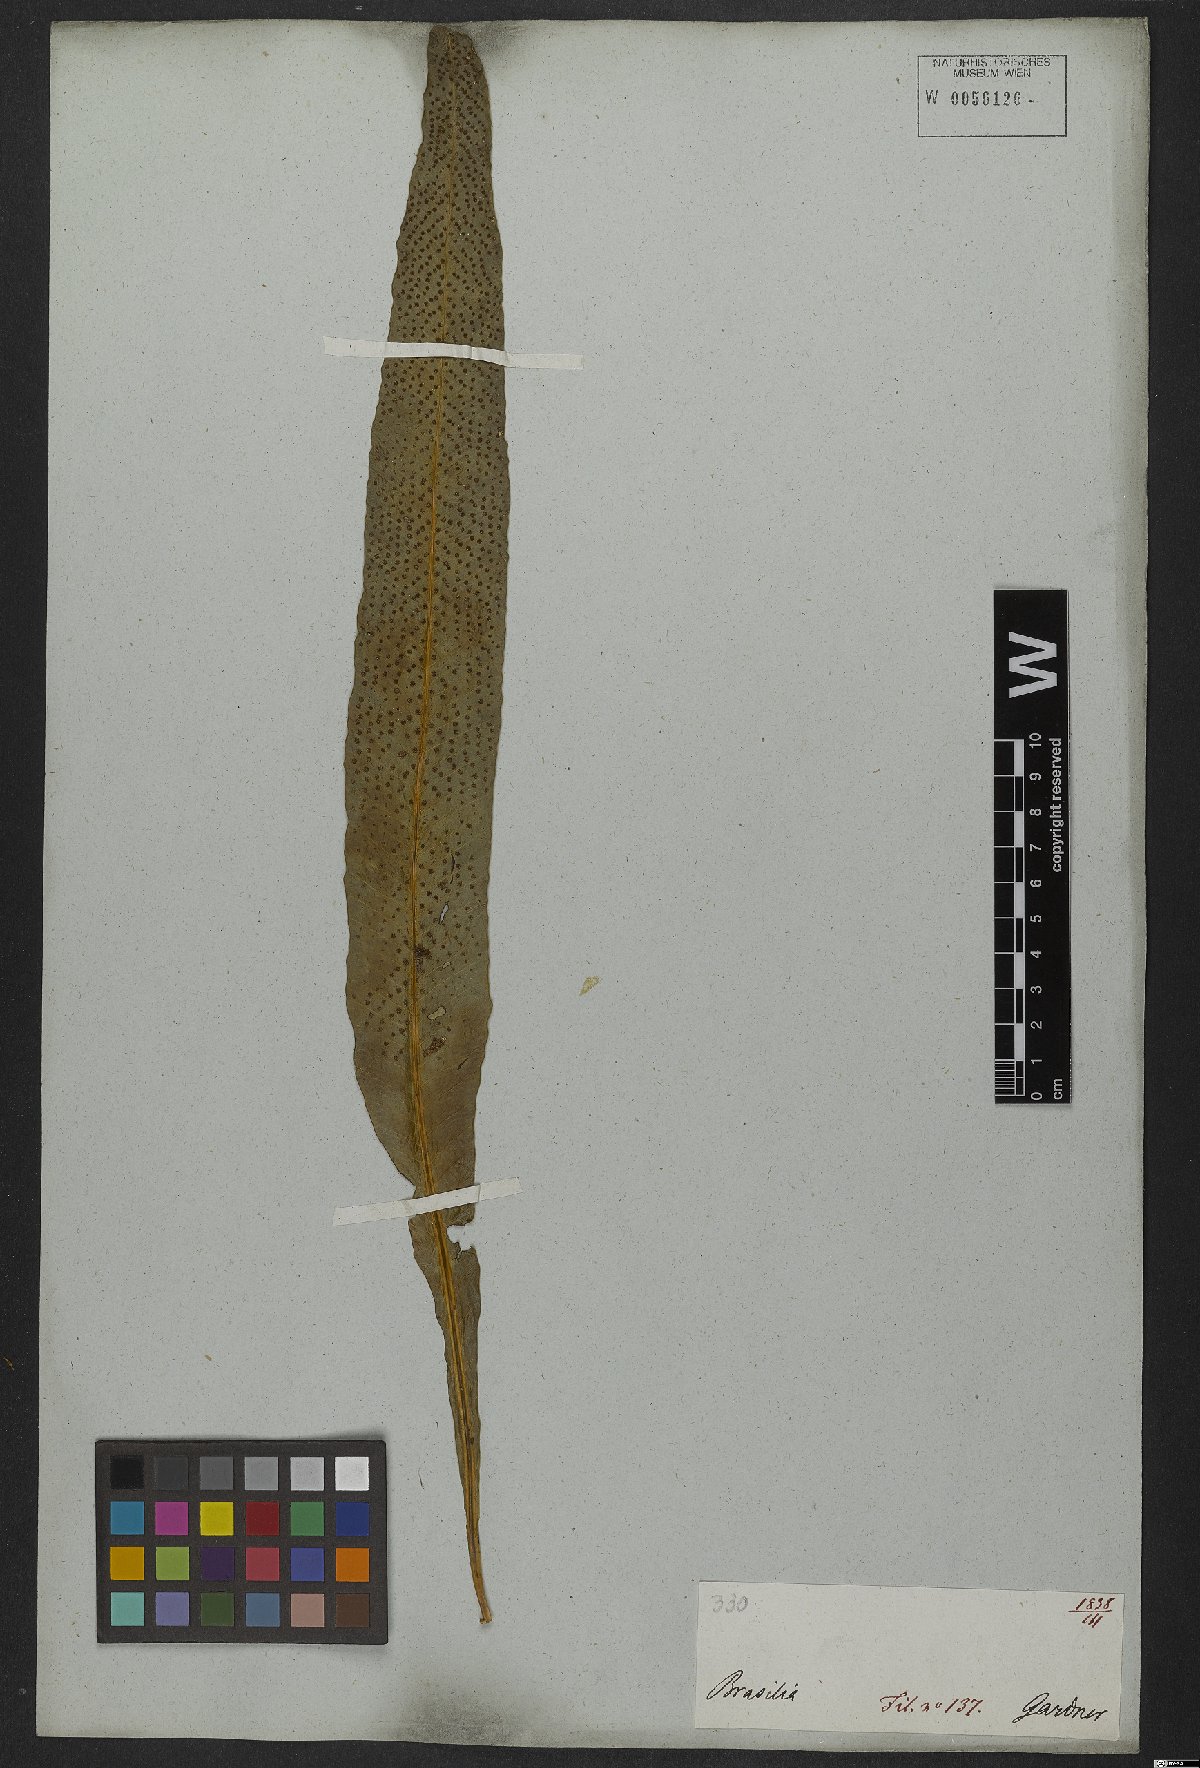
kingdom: Plantae
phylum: Tracheophyta
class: Polypodiopsida
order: Polypodiales
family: Polypodiaceae
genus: Campyloneurum
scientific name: Campyloneurum phyllitidis
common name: Cow-tongue fern
